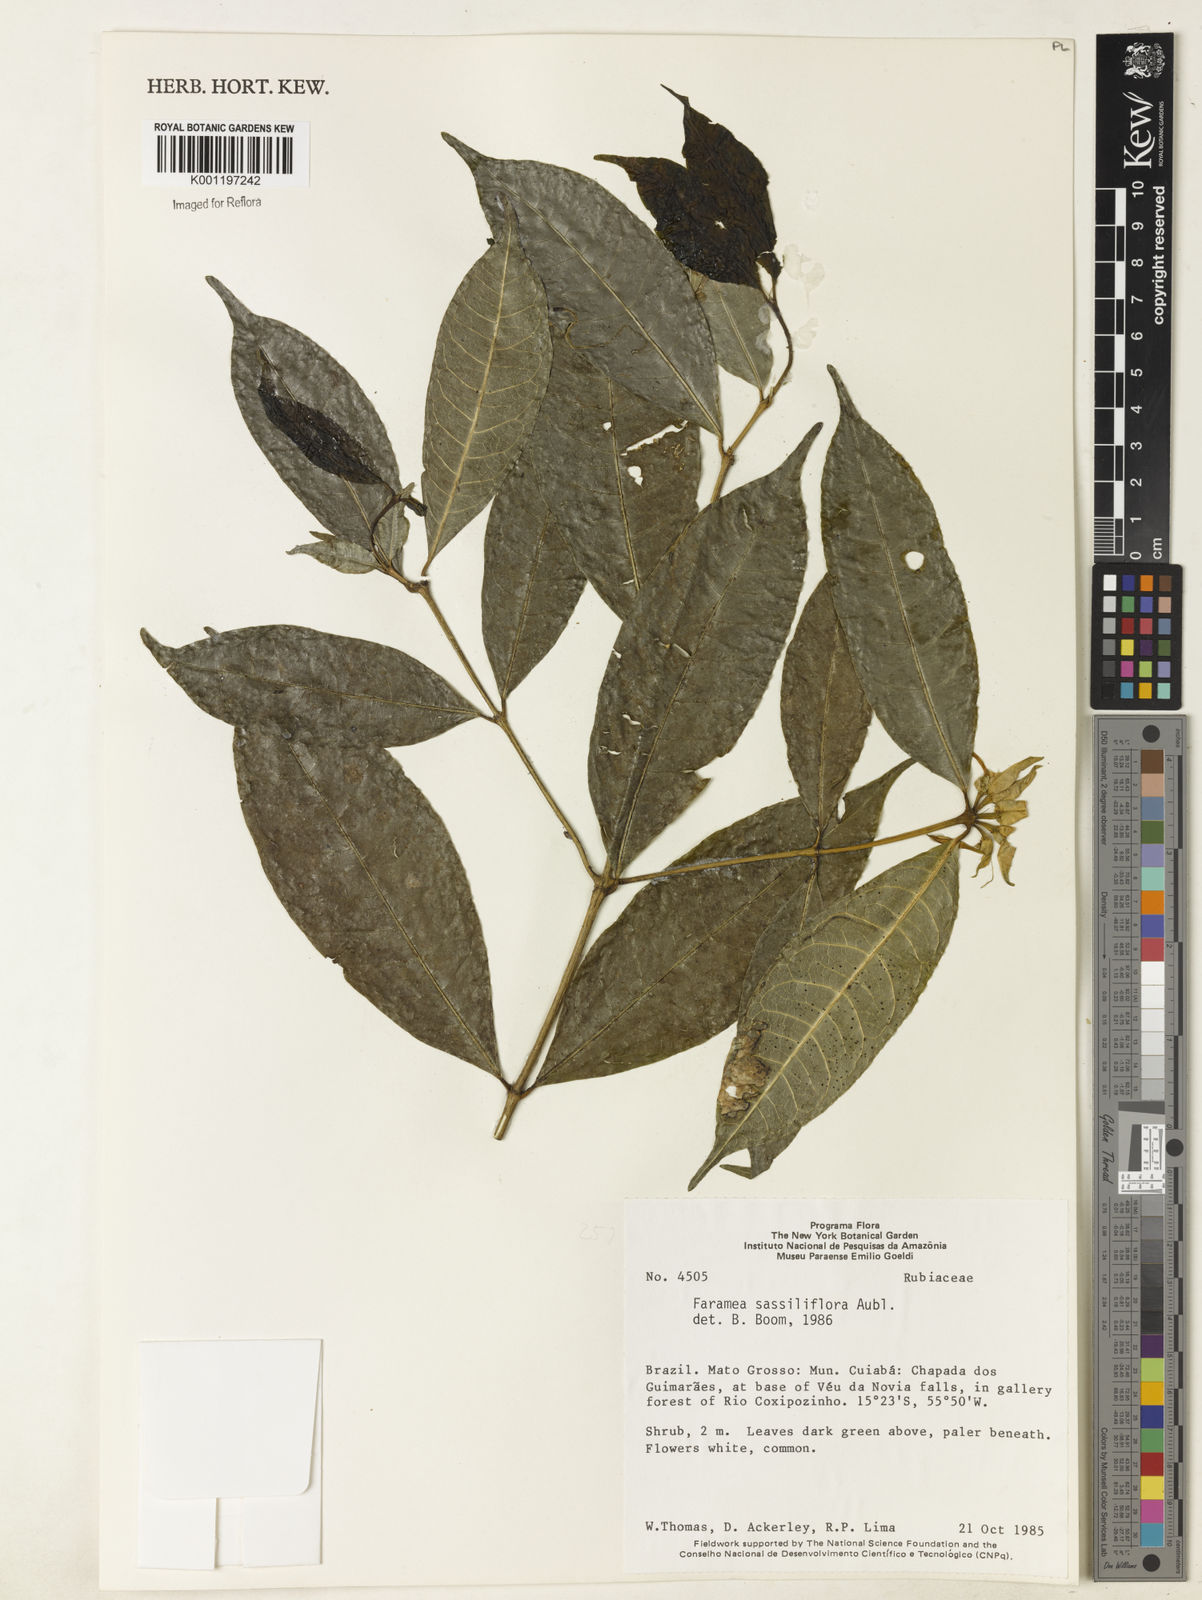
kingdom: Plantae
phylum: Tracheophyta
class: Magnoliopsida
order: Gentianales
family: Rubiaceae
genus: Faramea
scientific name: Faramea sessilifolia
